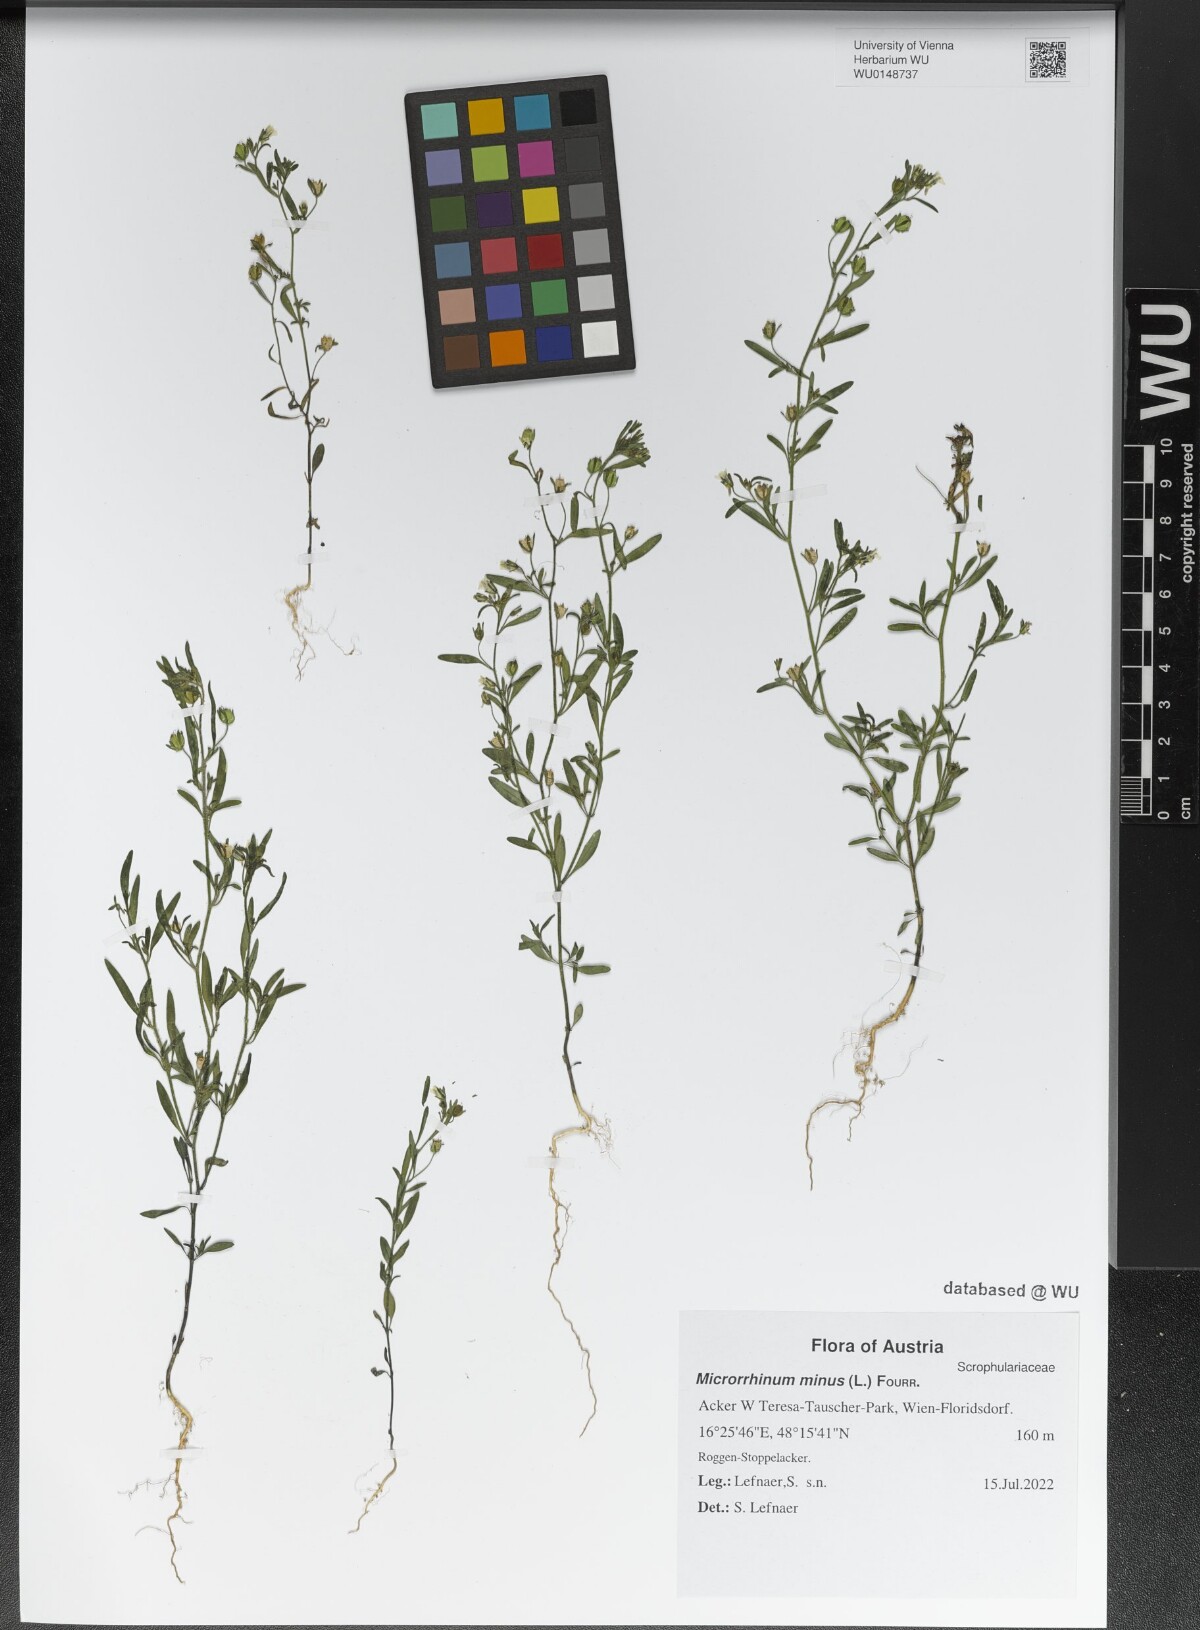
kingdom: Plantae
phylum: Tracheophyta
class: Magnoliopsida
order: Lamiales
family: Plantaginaceae
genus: Chaenorhinum
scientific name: Chaenorhinum minus
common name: Dwarf snapdragon
